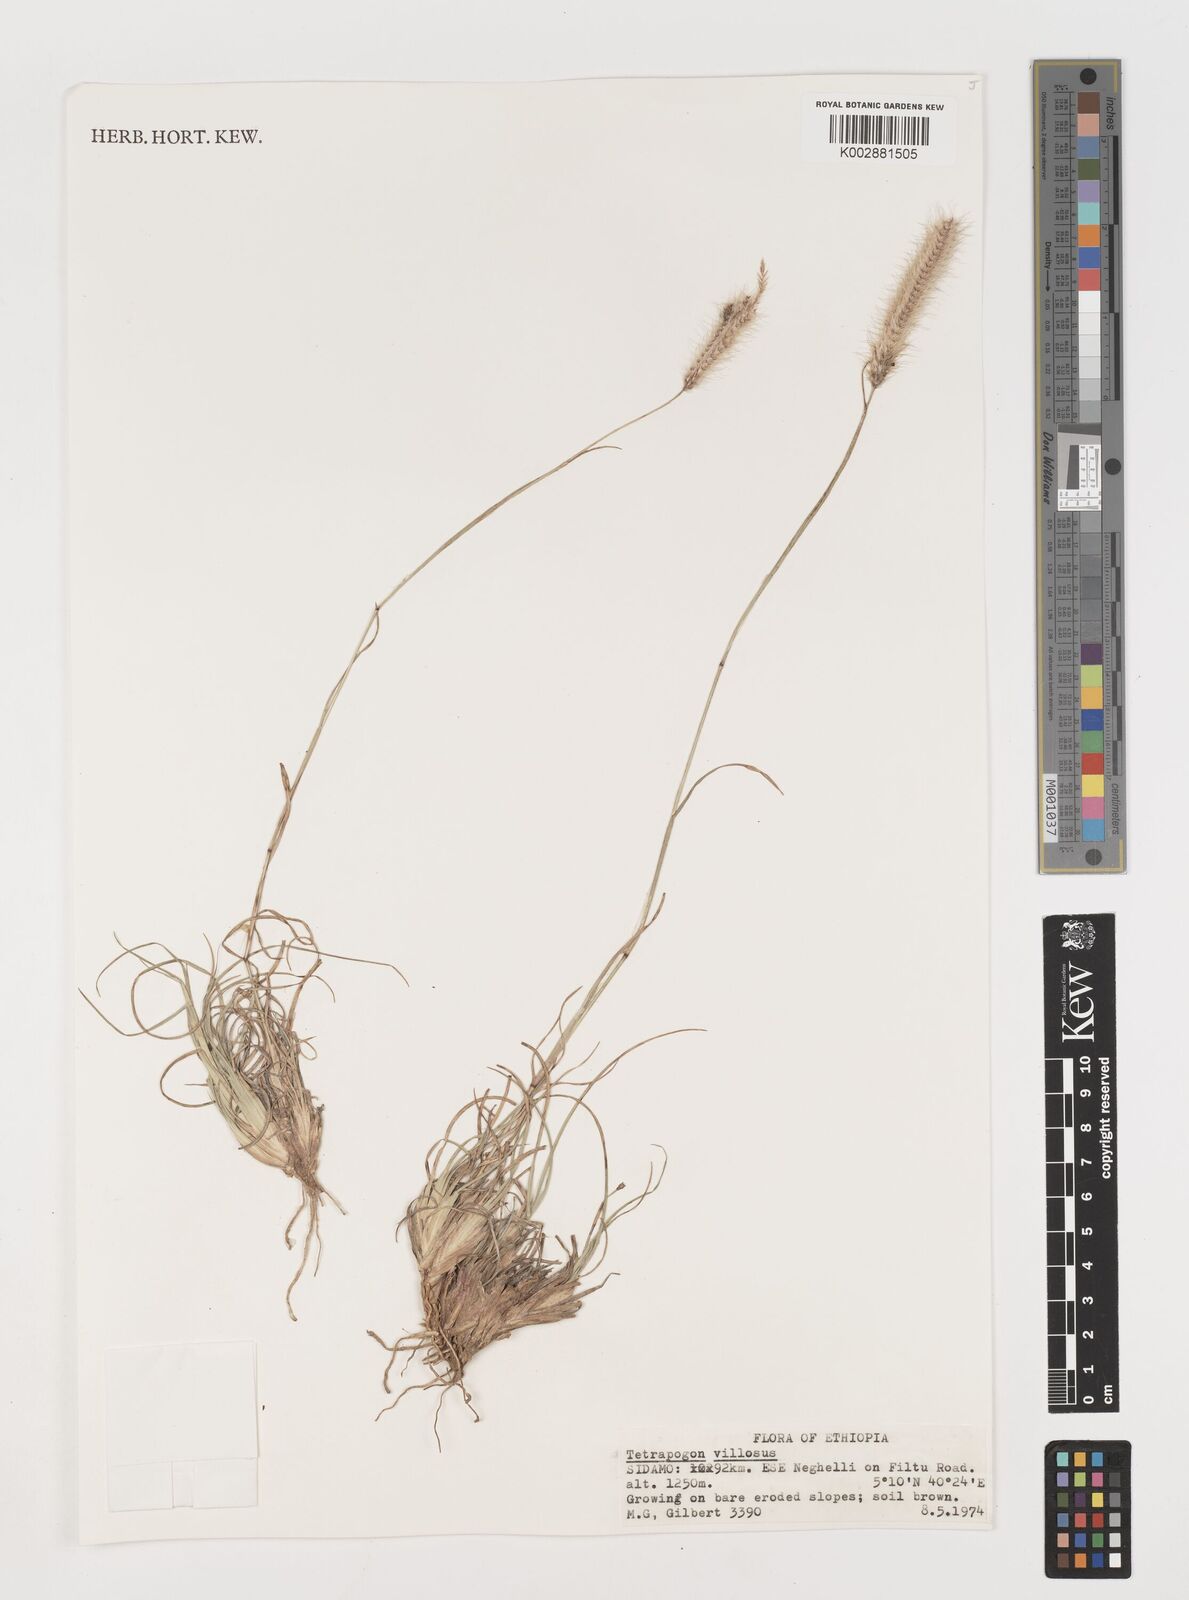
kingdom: Plantae
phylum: Tracheophyta
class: Liliopsida
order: Poales
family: Poaceae
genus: Tetrapogon
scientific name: Tetrapogon villosus
